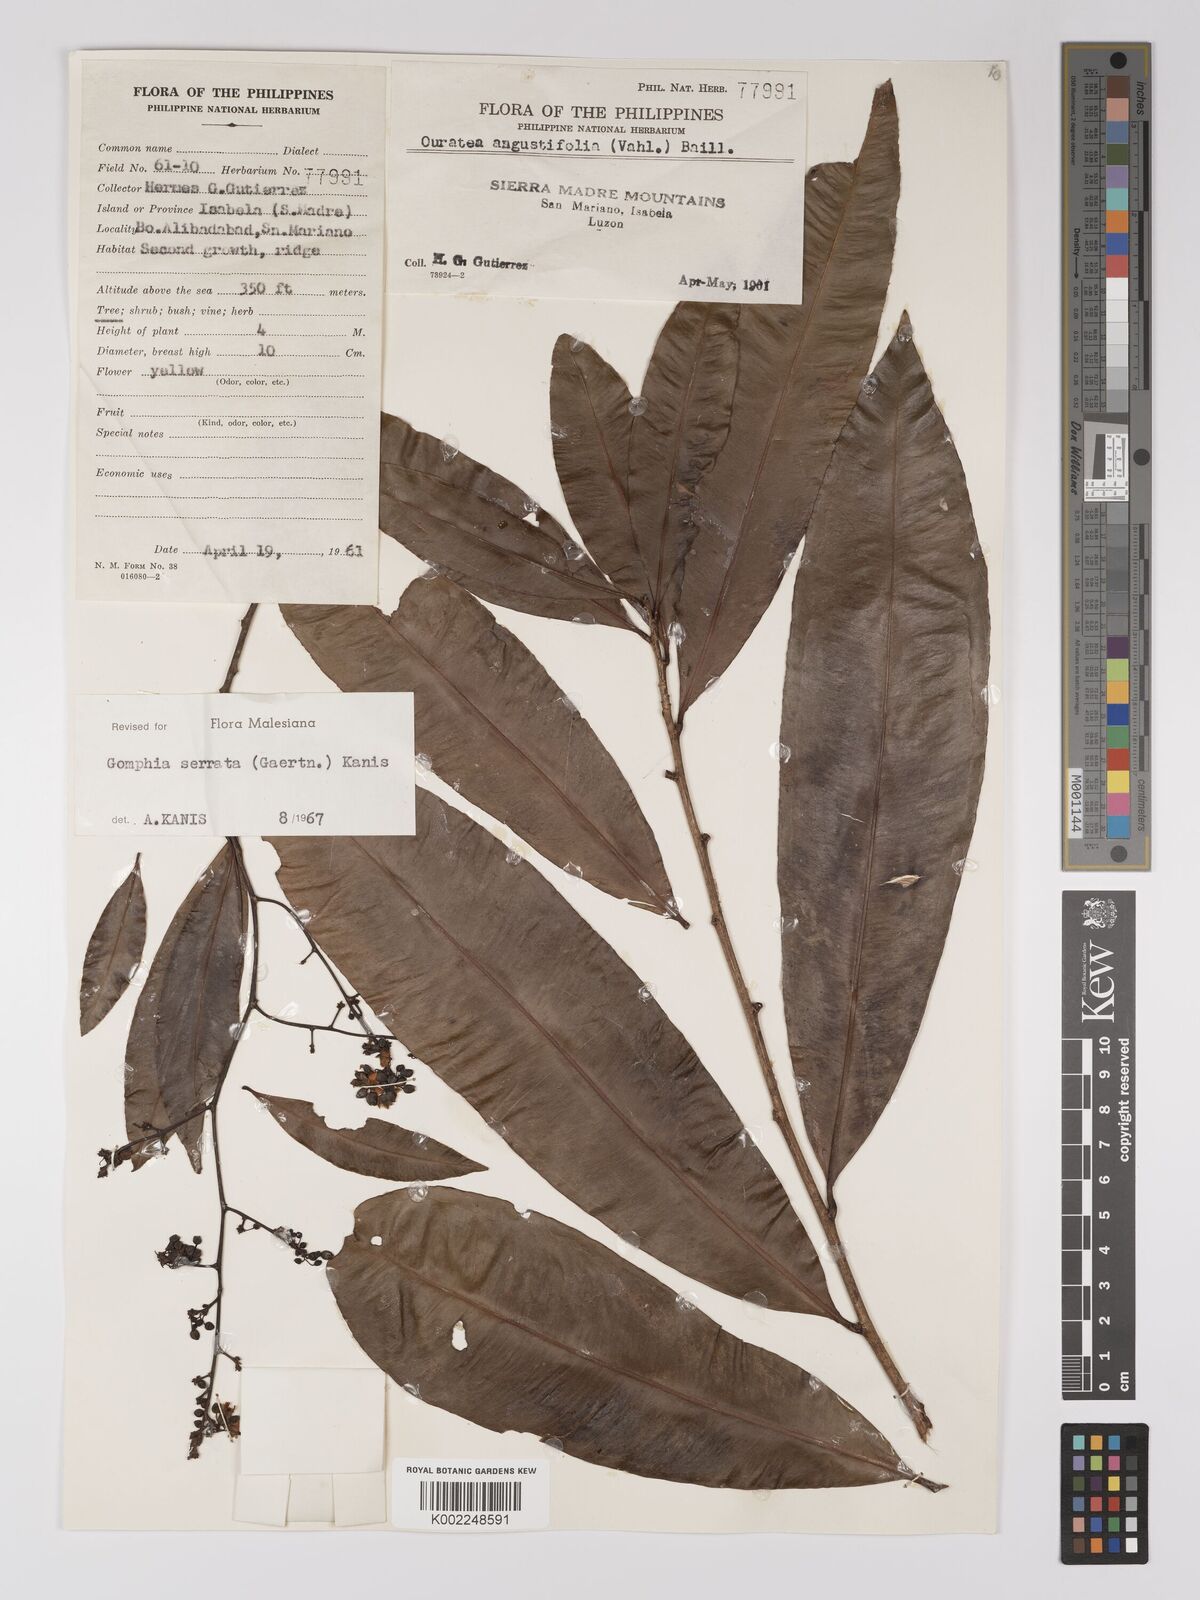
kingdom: Plantae
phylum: Tracheophyta
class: Magnoliopsida
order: Malpighiales
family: Ochnaceae
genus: Gomphia
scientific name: Gomphia serrata
